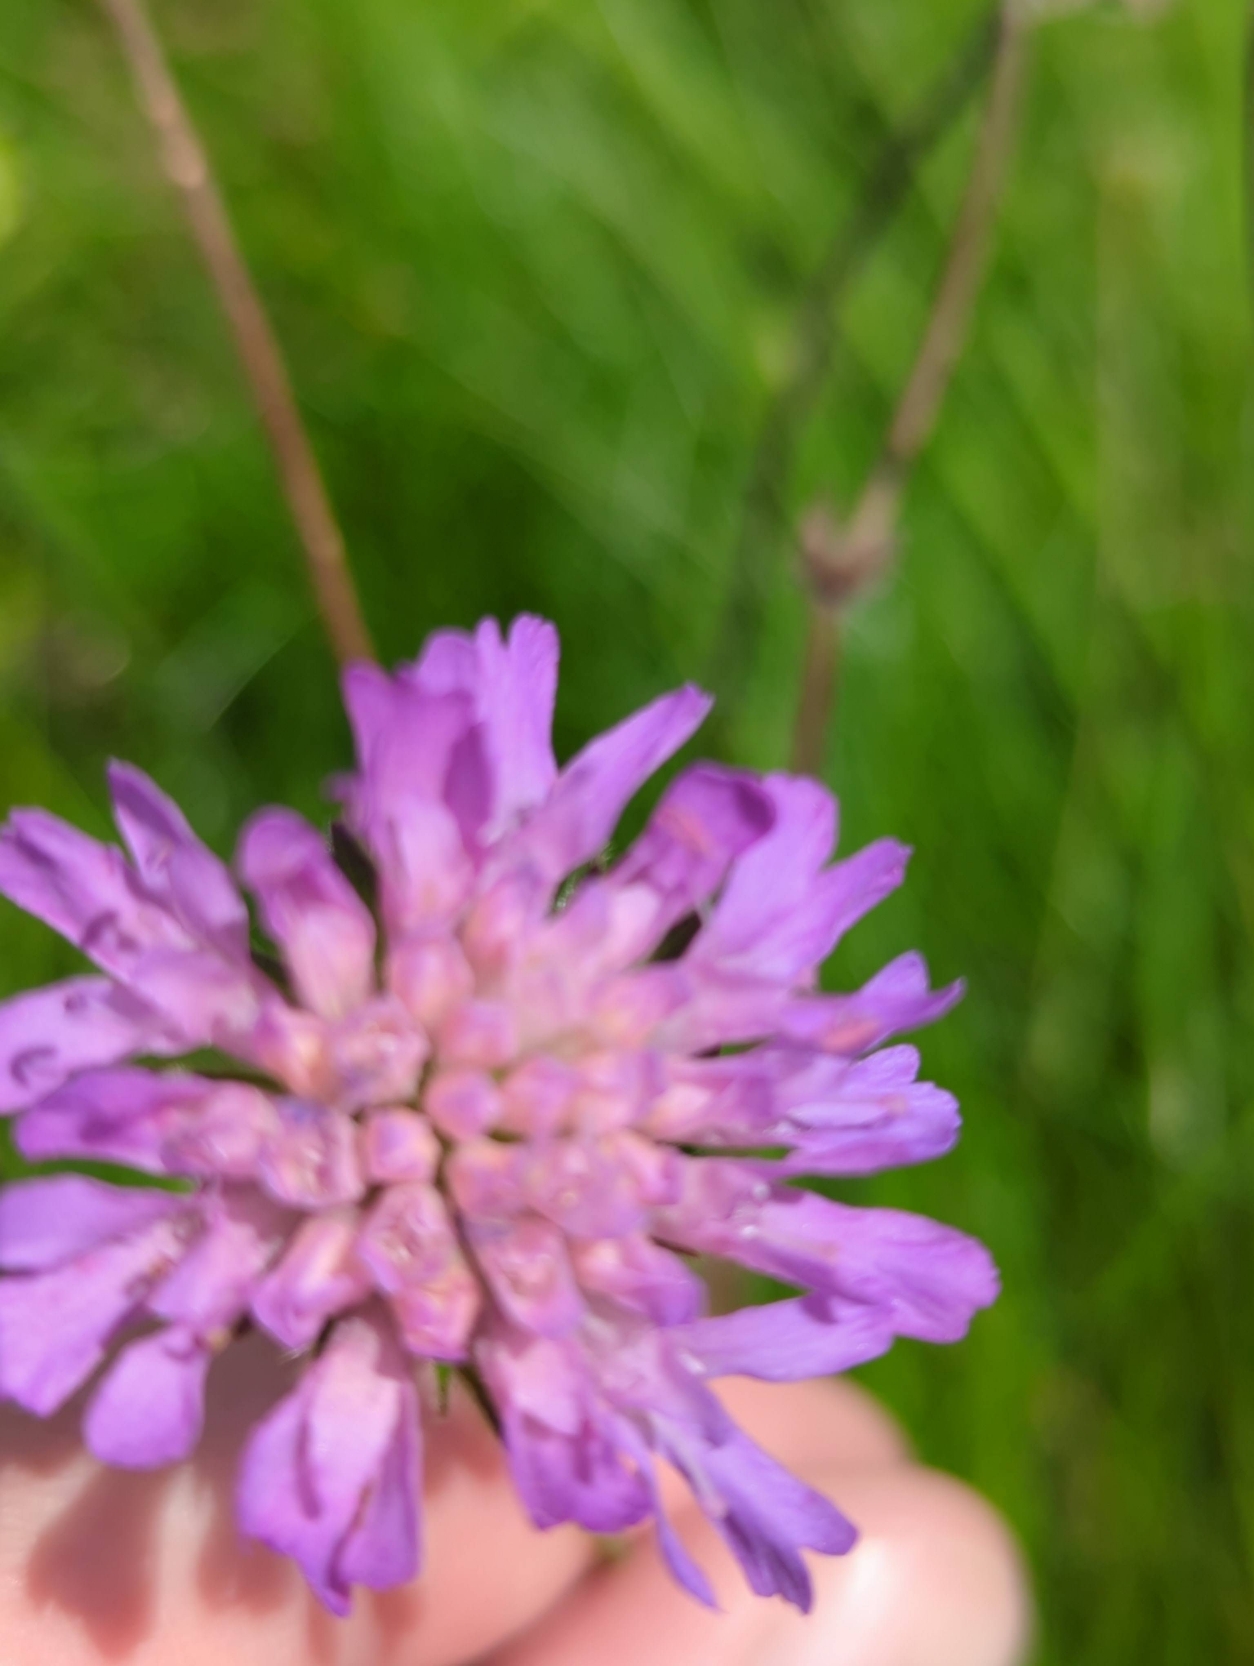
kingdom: Plantae
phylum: Tracheophyta
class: Magnoliopsida
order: Dipsacales
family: Caprifoliaceae
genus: Knautia
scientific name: Knautia arvensis
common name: Blåhat
